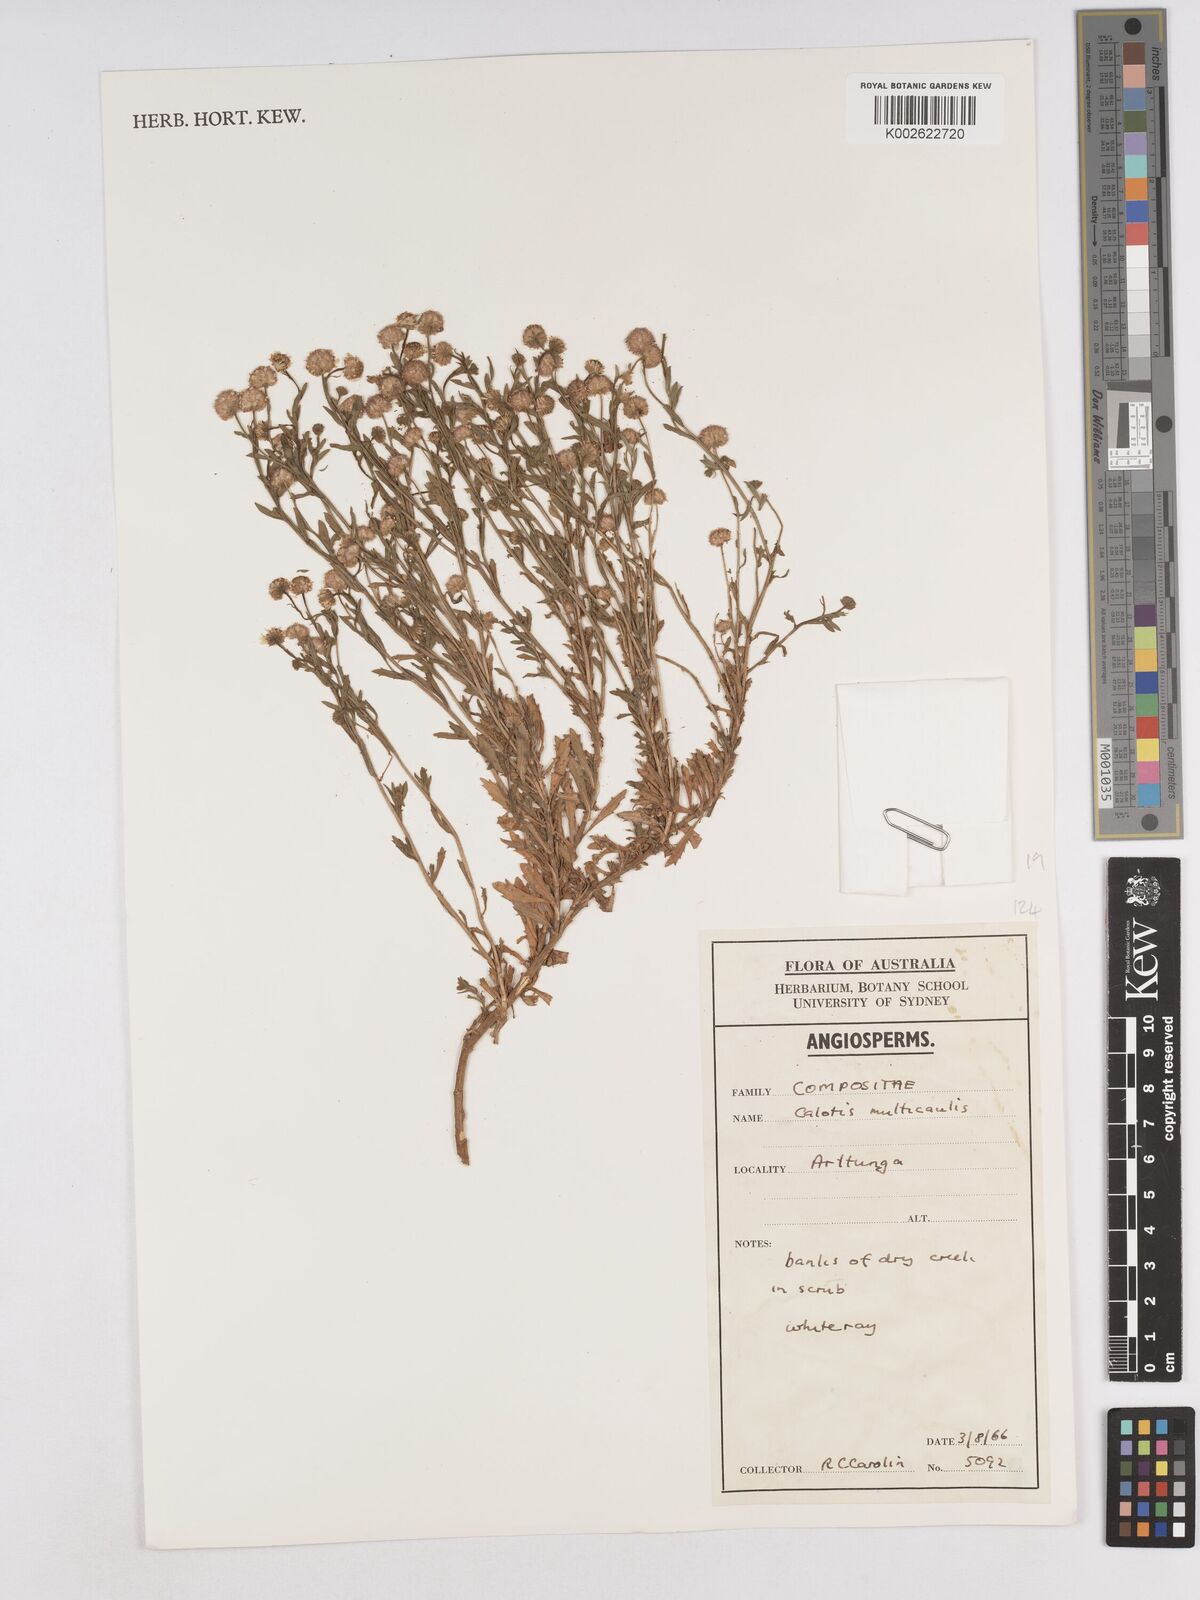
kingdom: Plantae
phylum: Tracheophyta
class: Magnoliopsida
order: Asterales
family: Asteraceae
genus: Calotis
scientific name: Calotis multicaulis
